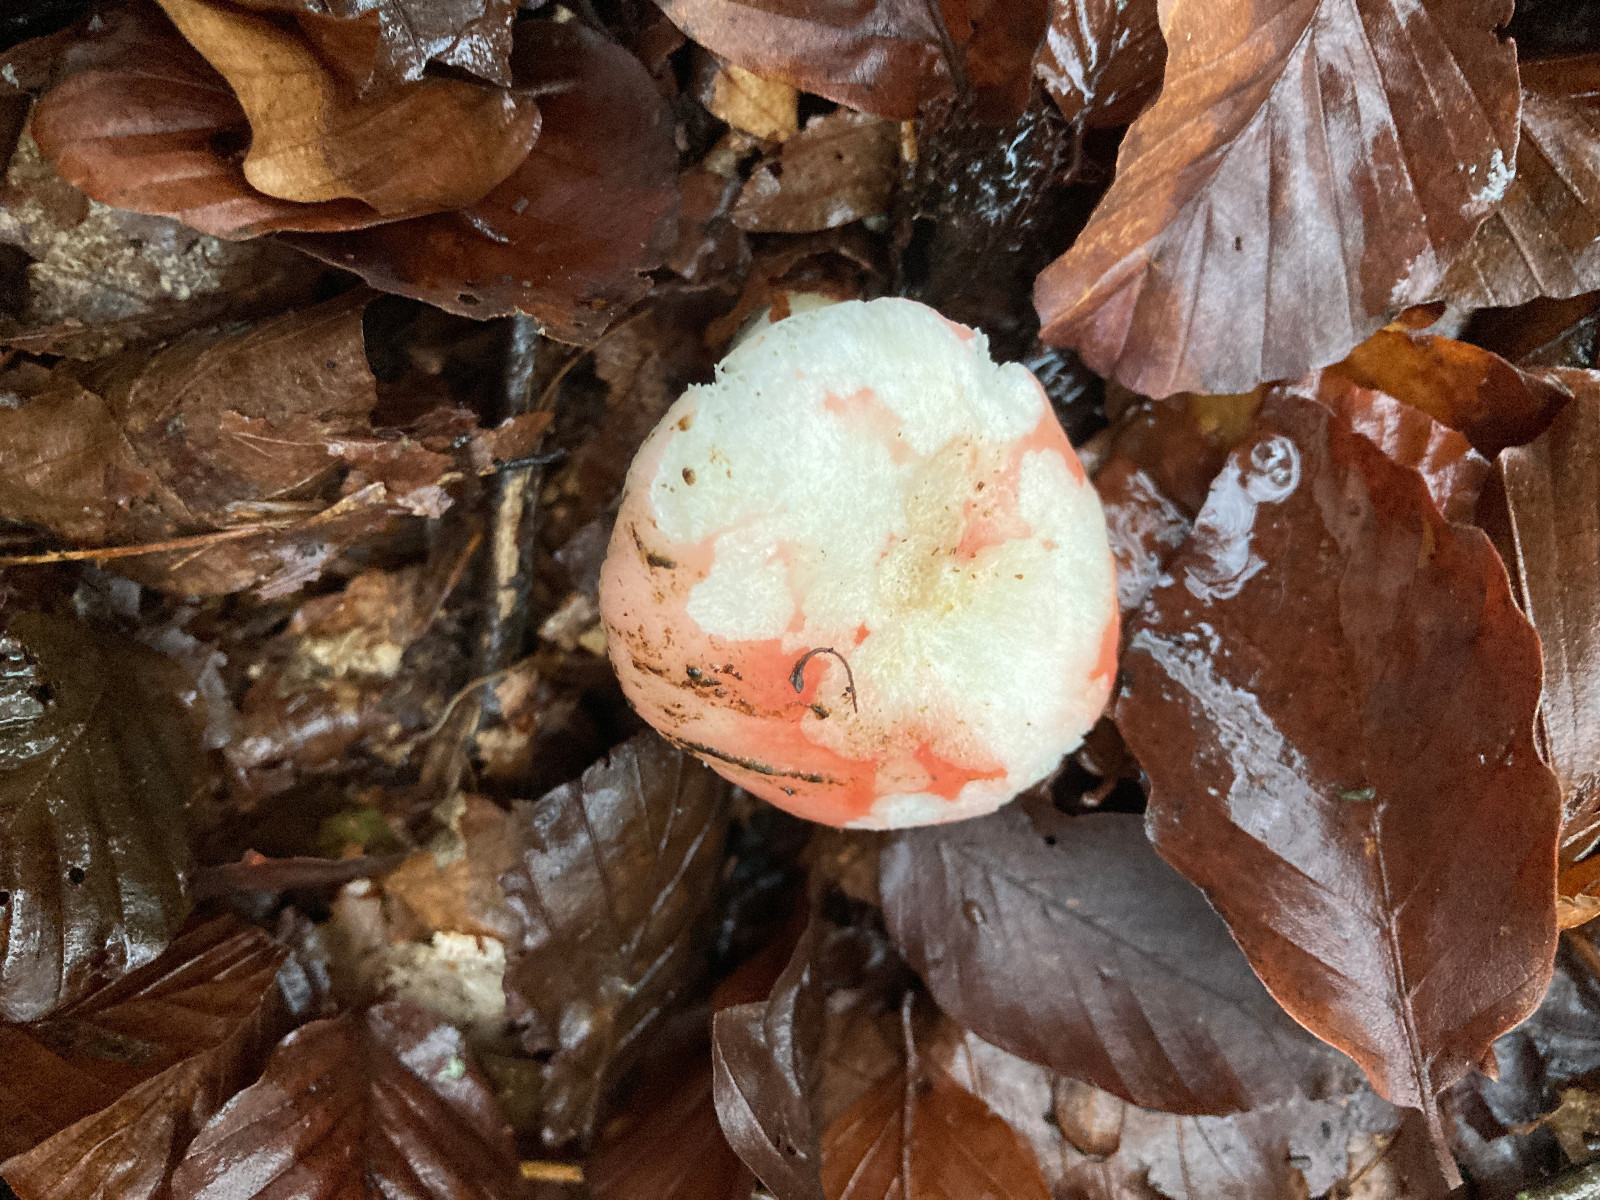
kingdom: Fungi
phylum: Basidiomycota
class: Agaricomycetes
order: Russulales
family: Russulaceae
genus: Russula
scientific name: Russula
